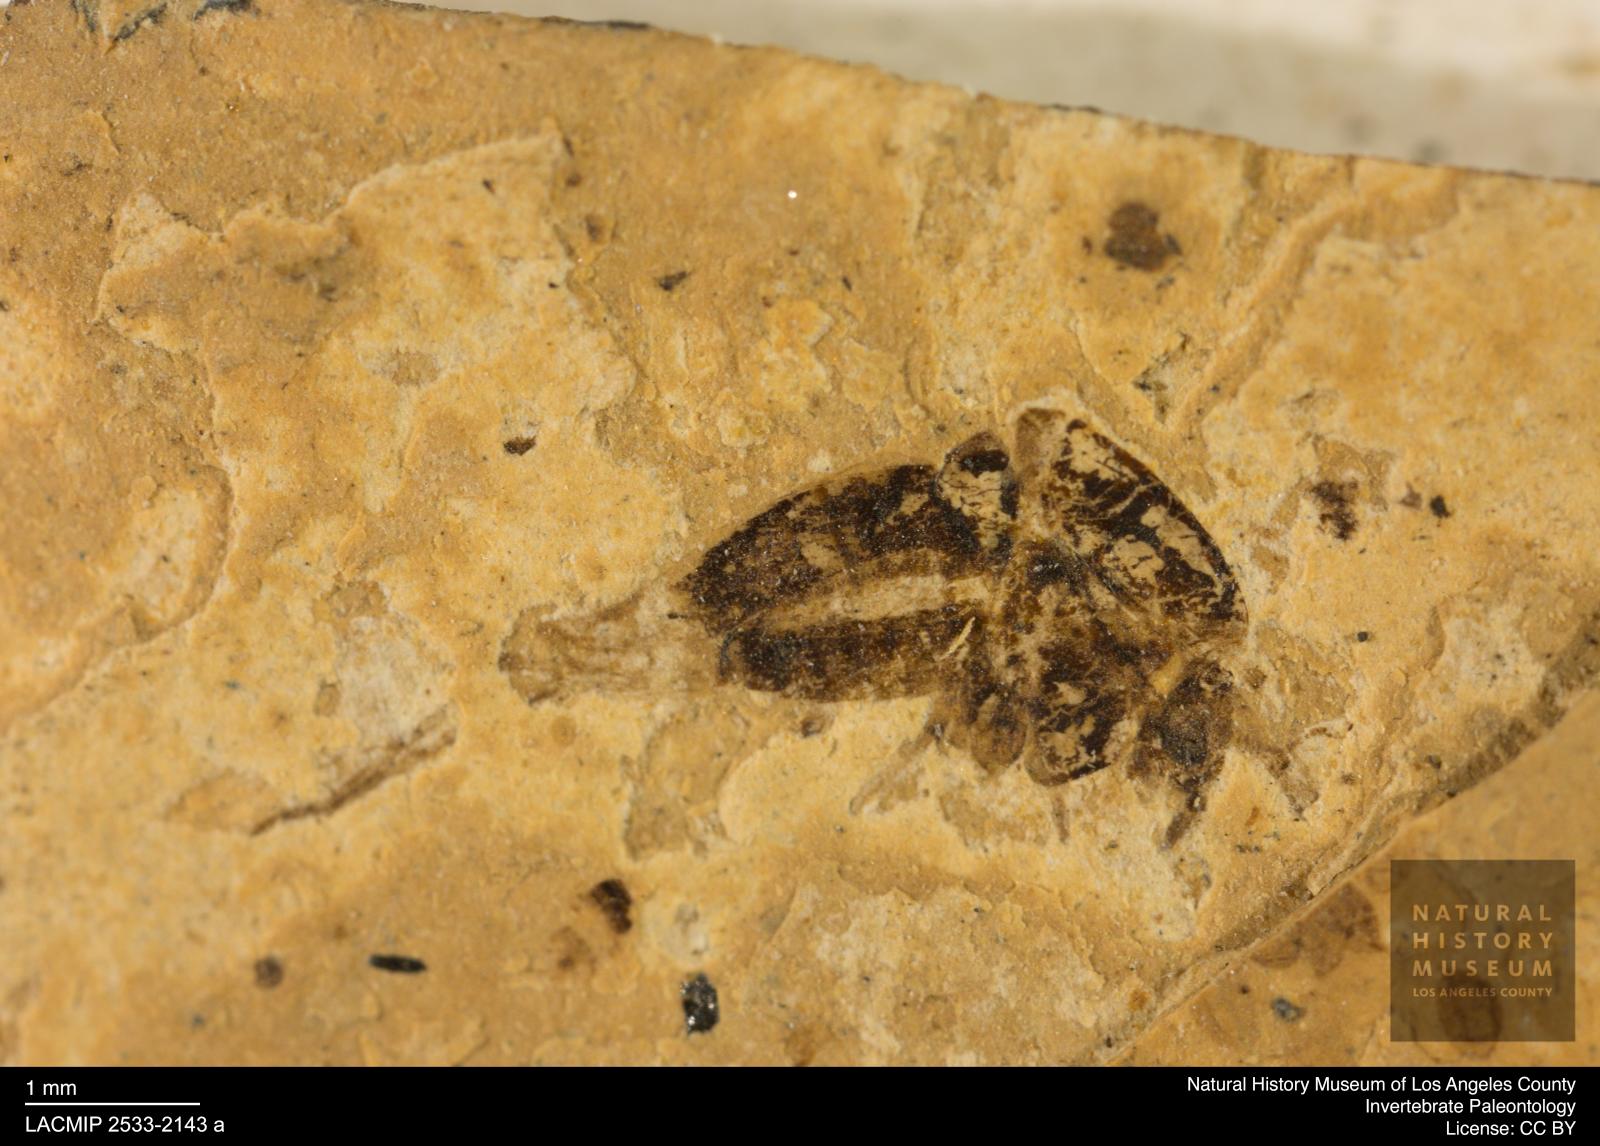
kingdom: Animalia
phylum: Arthropoda
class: Insecta
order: Diptera
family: Chironomidae
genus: Tanypus
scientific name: Tanypus palaemon
